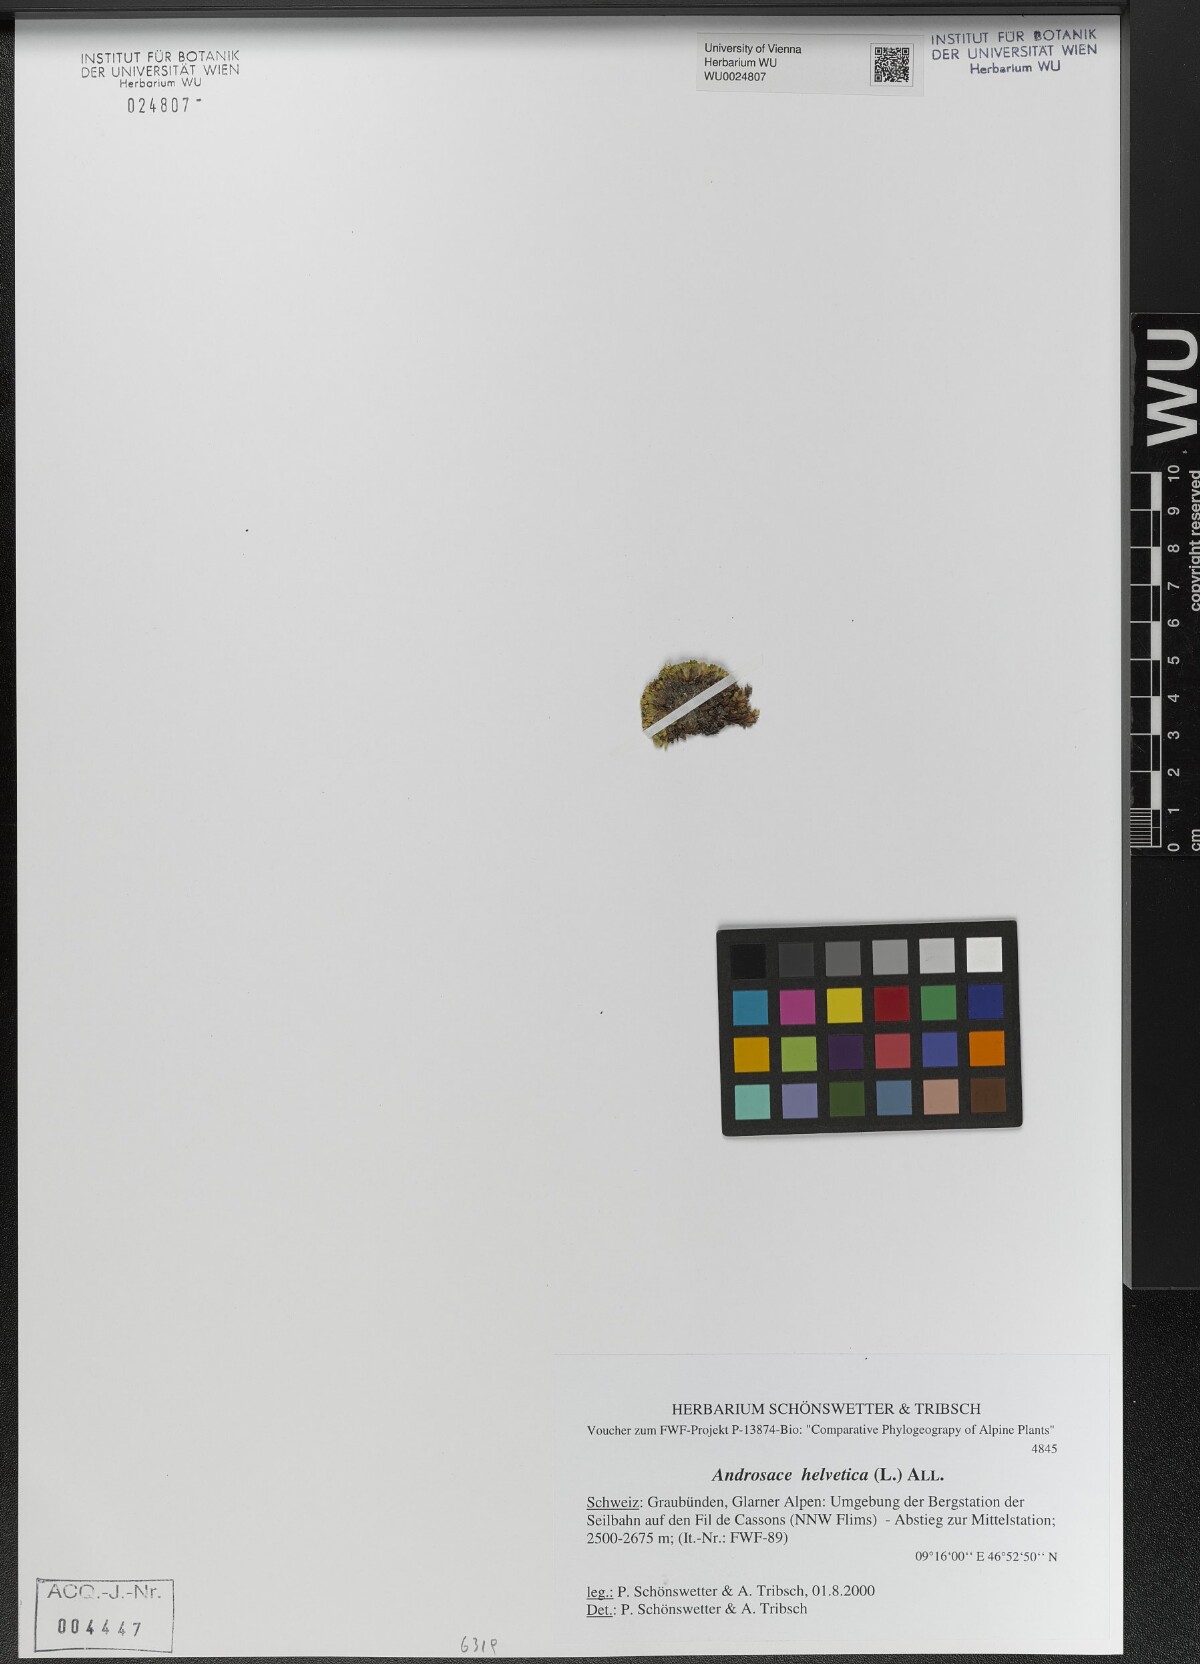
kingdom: Plantae
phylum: Tracheophyta
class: Magnoliopsida
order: Ericales
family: Primulaceae
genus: Androsace
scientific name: Androsace helvetica
